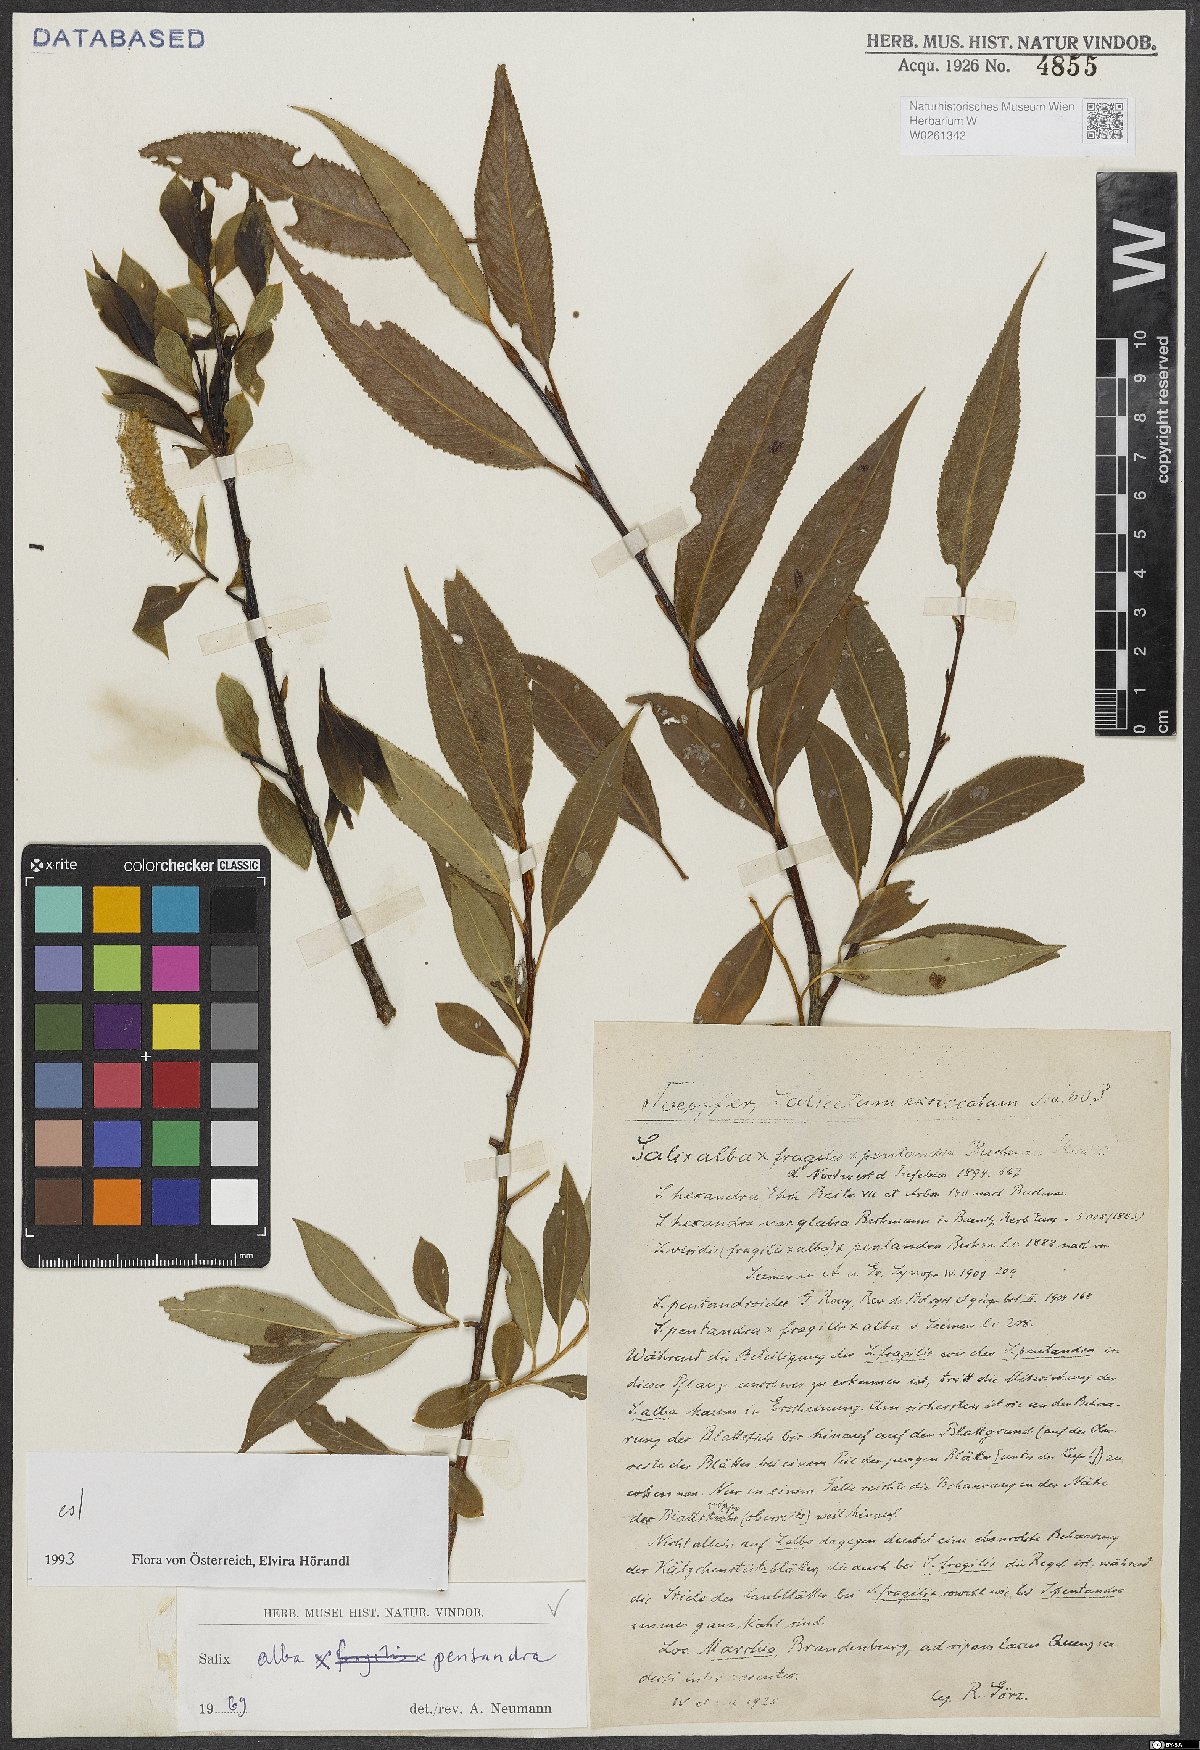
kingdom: Plantae
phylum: Tracheophyta
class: Magnoliopsida
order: Malpighiales
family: Salicaceae
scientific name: Salicaceae
